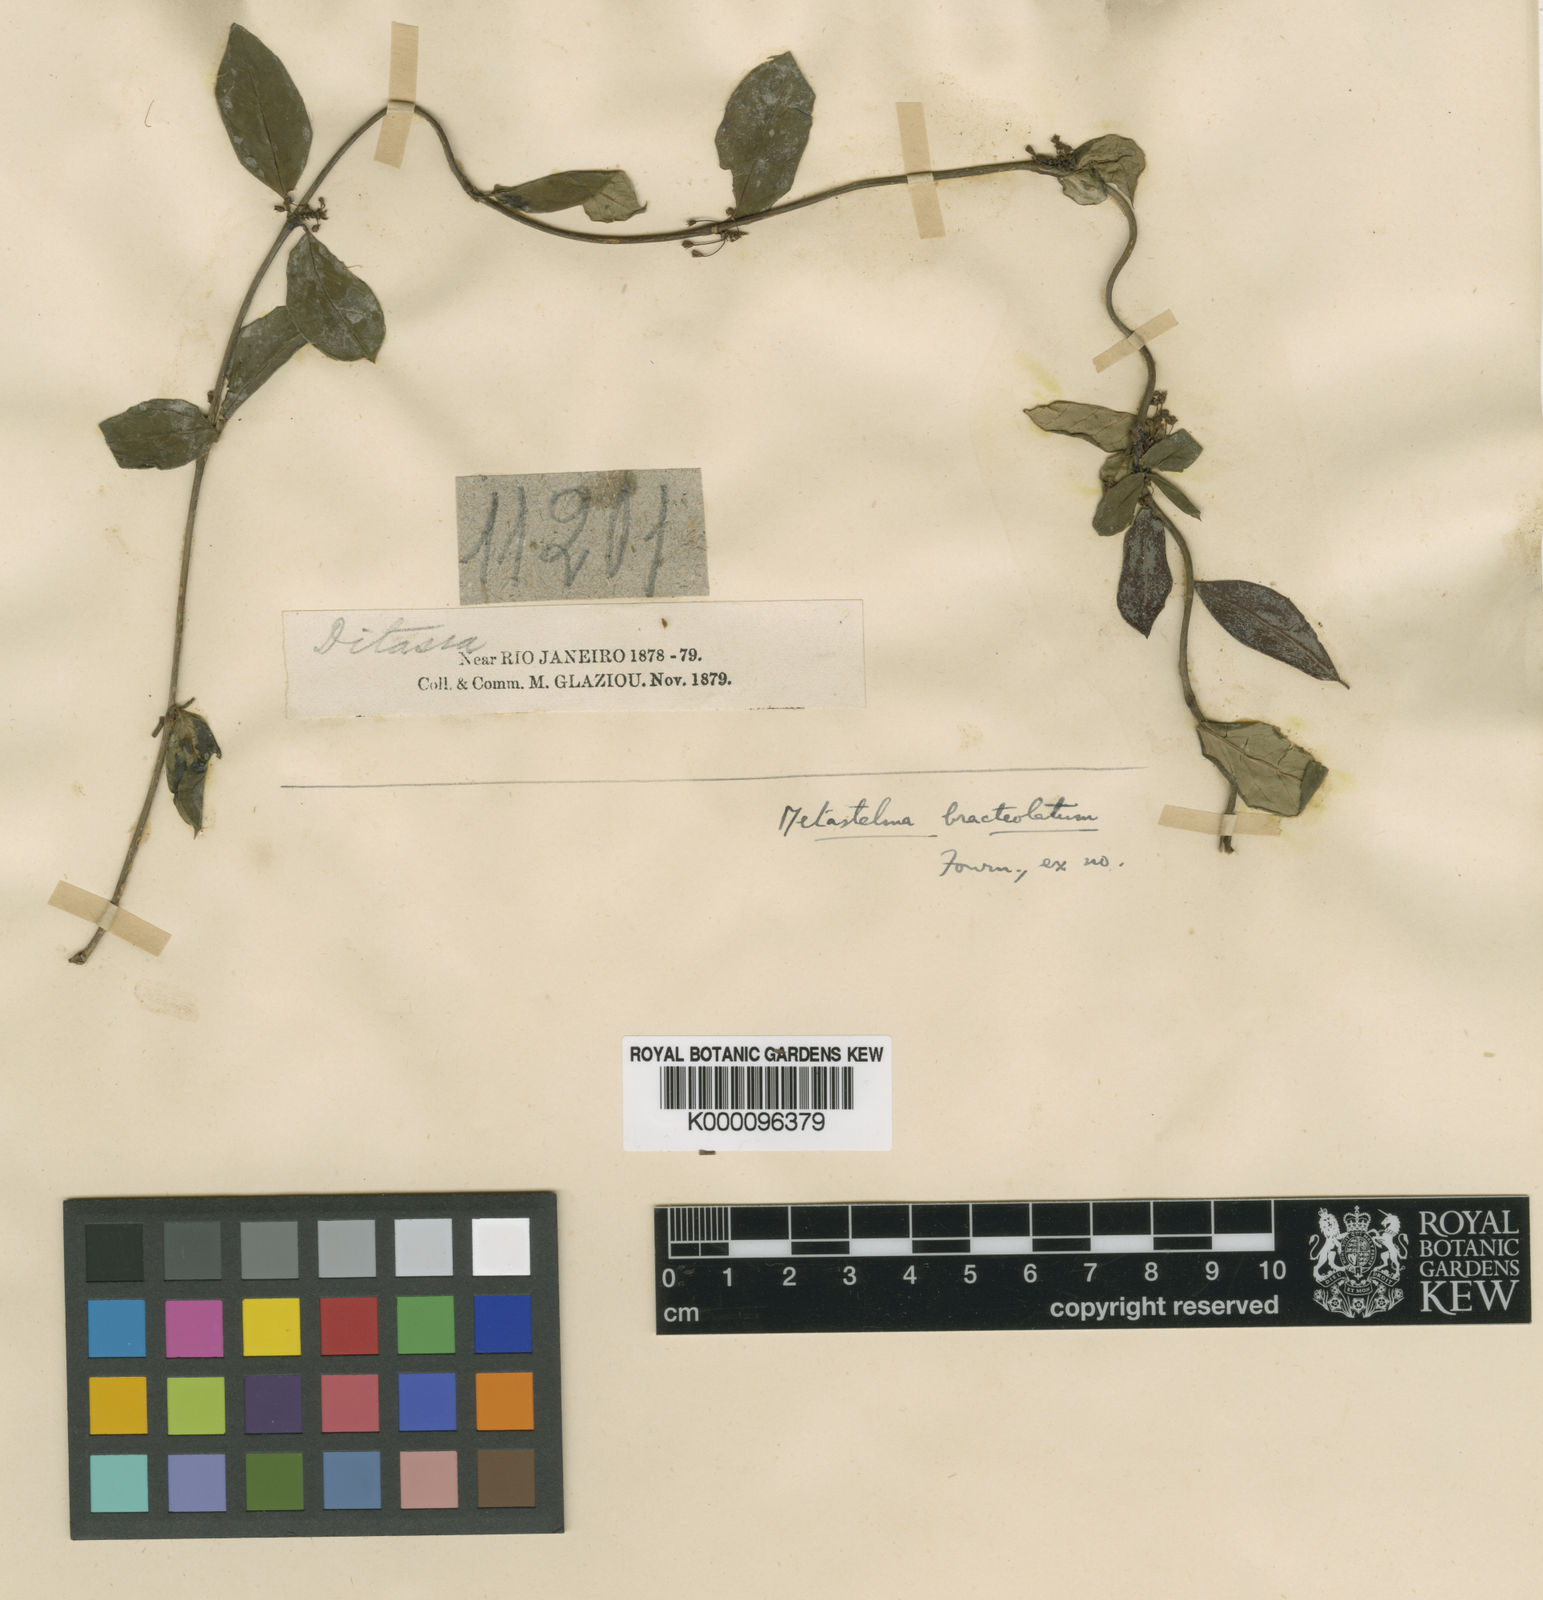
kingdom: Plantae
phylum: Tracheophyta
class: Magnoliopsida
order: Gentianales
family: Apocynaceae
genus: Petalostelma
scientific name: Petalostelma bracteolatum
